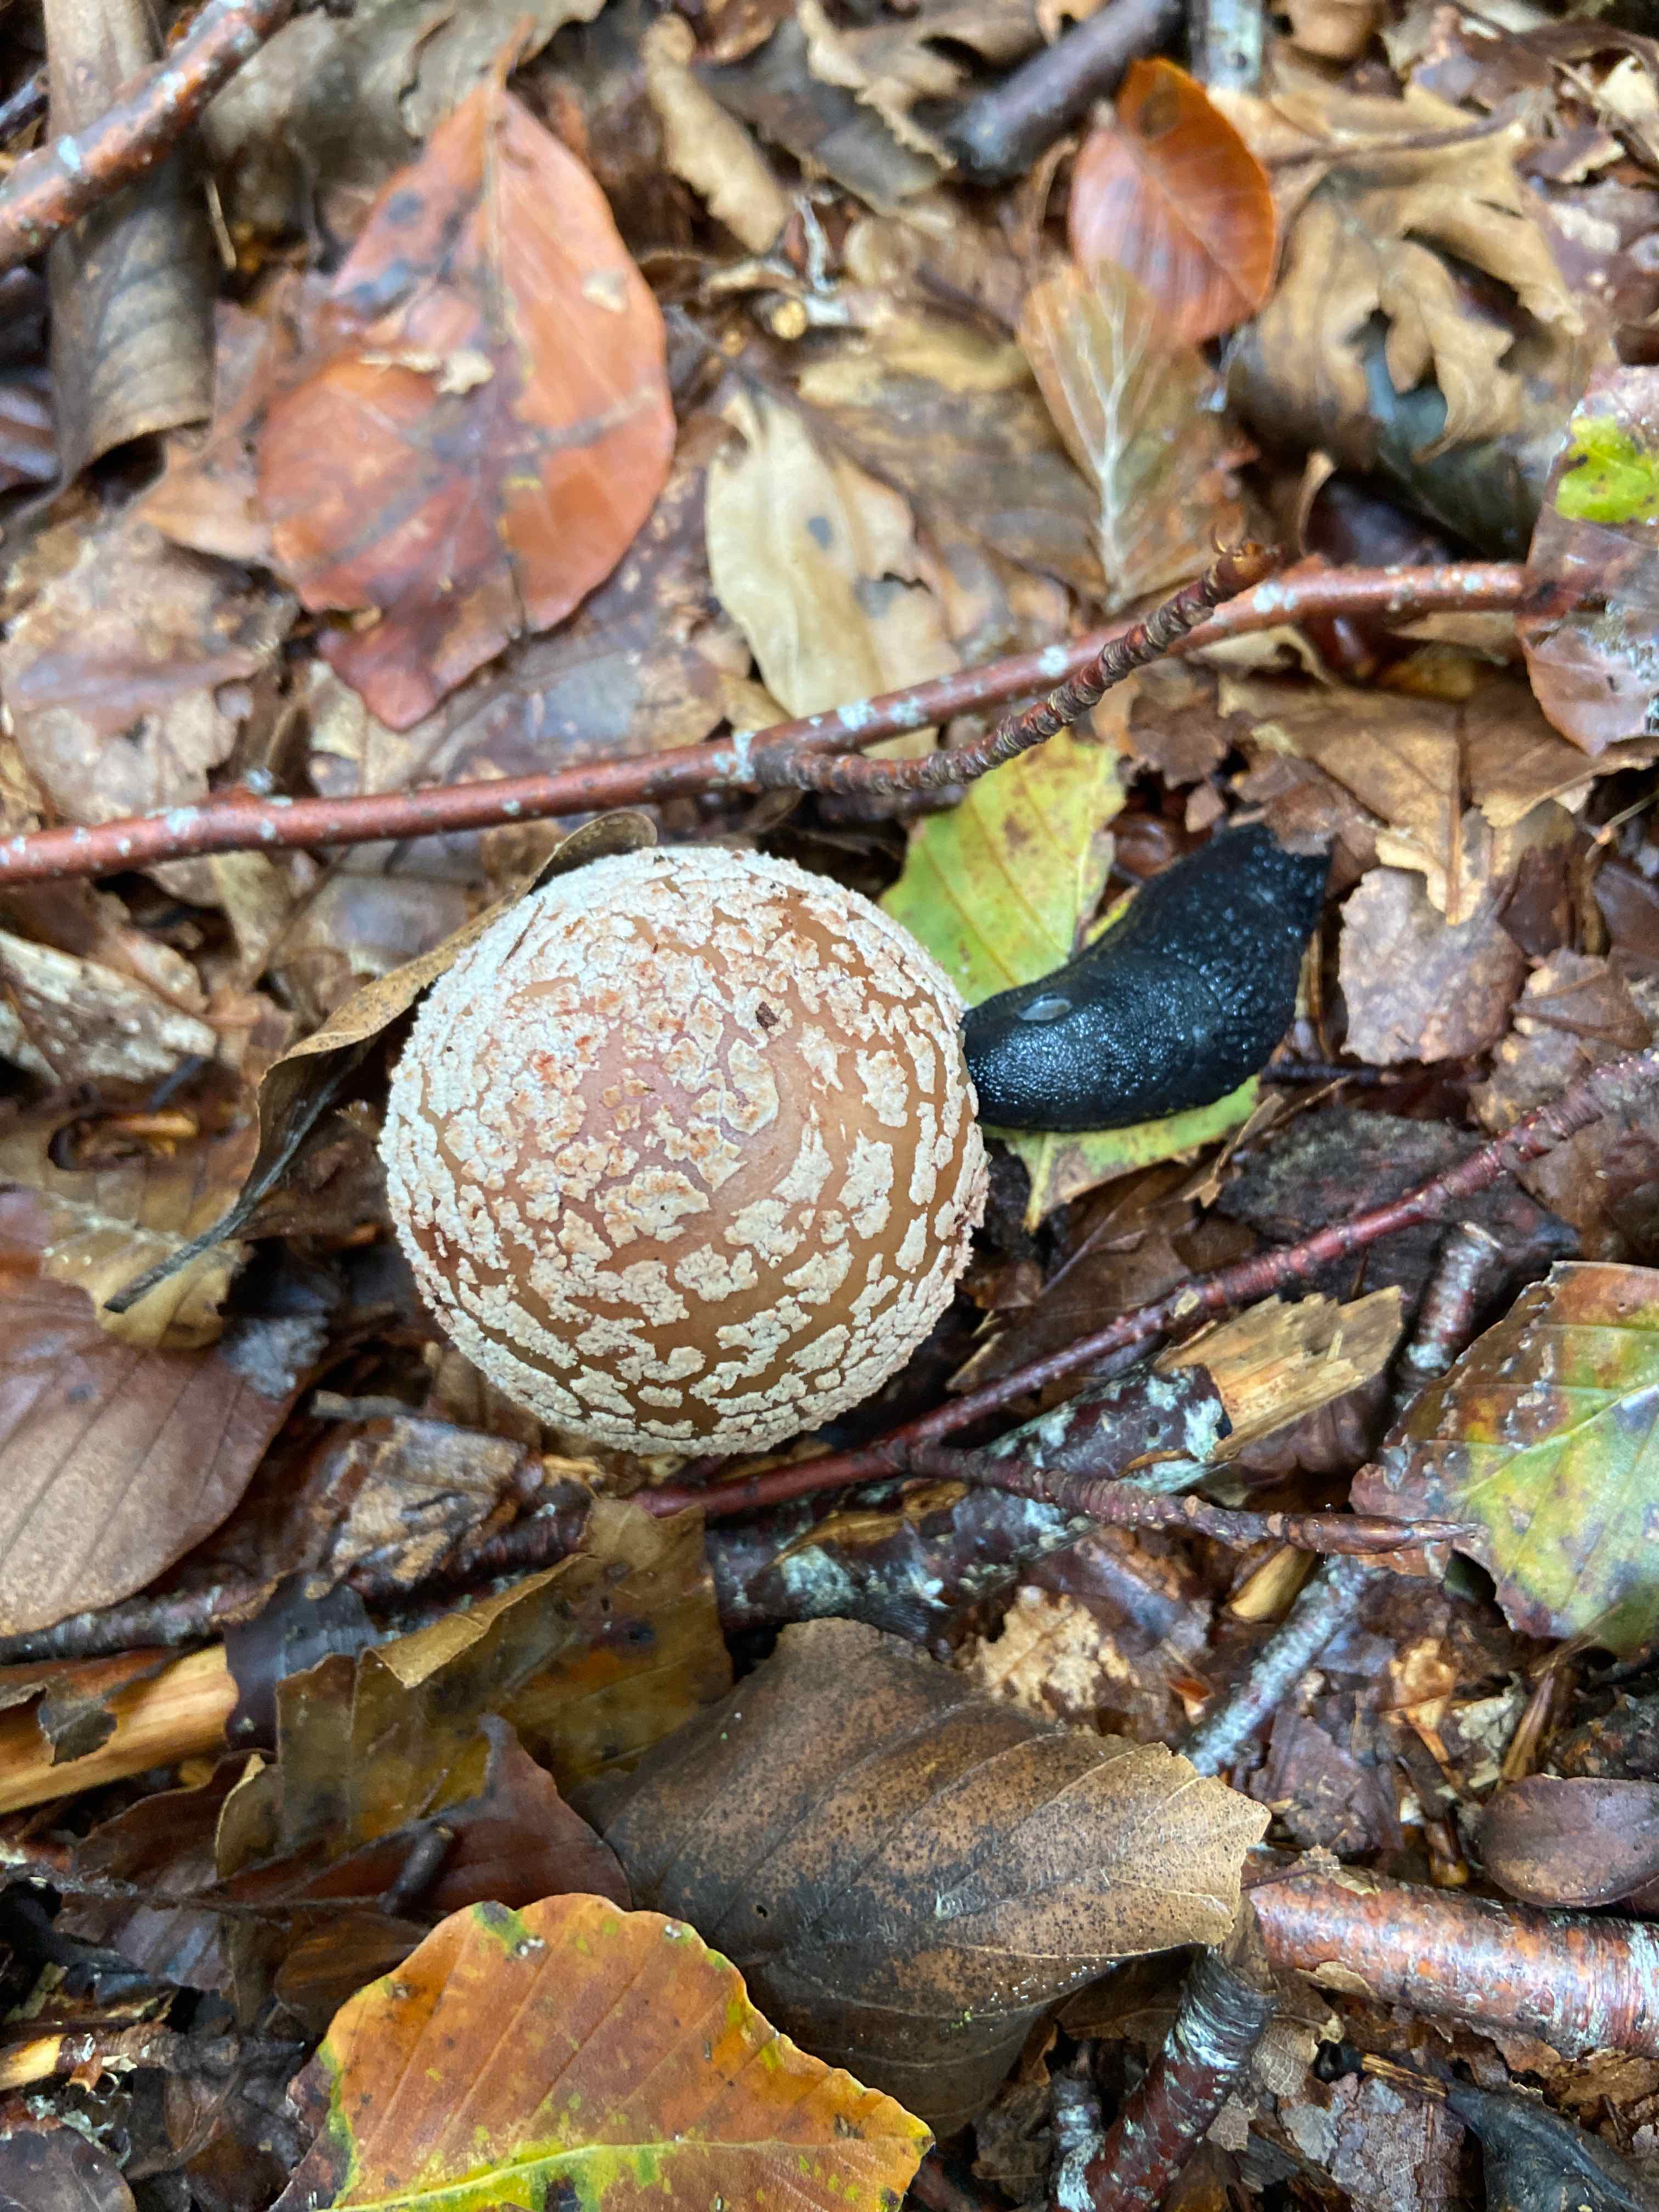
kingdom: Fungi
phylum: Basidiomycota
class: Agaricomycetes
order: Agaricales
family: Amanitaceae
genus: Amanita
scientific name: Amanita rubescens
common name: rødmende fluesvamp
